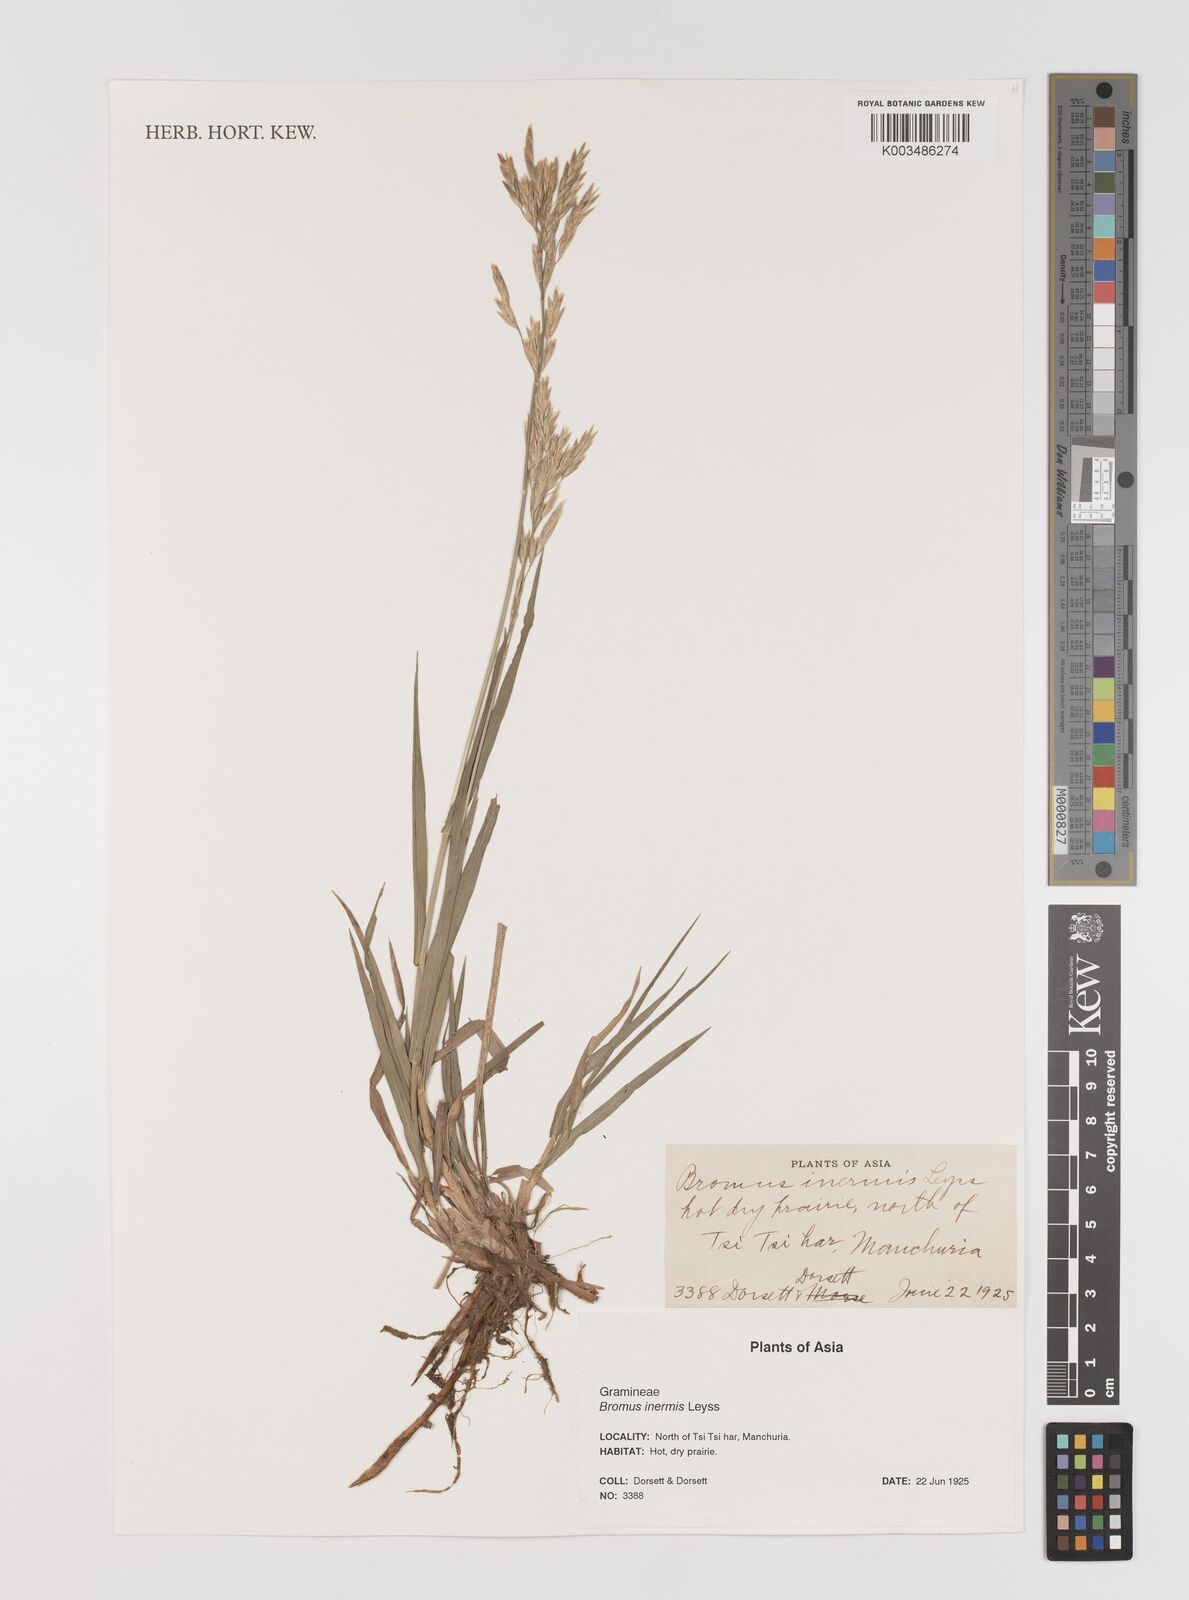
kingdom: Plantae
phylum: Tracheophyta
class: Liliopsida
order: Poales
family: Poaceae
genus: Bromus
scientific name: Bromus inermis
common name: Smooth brome
